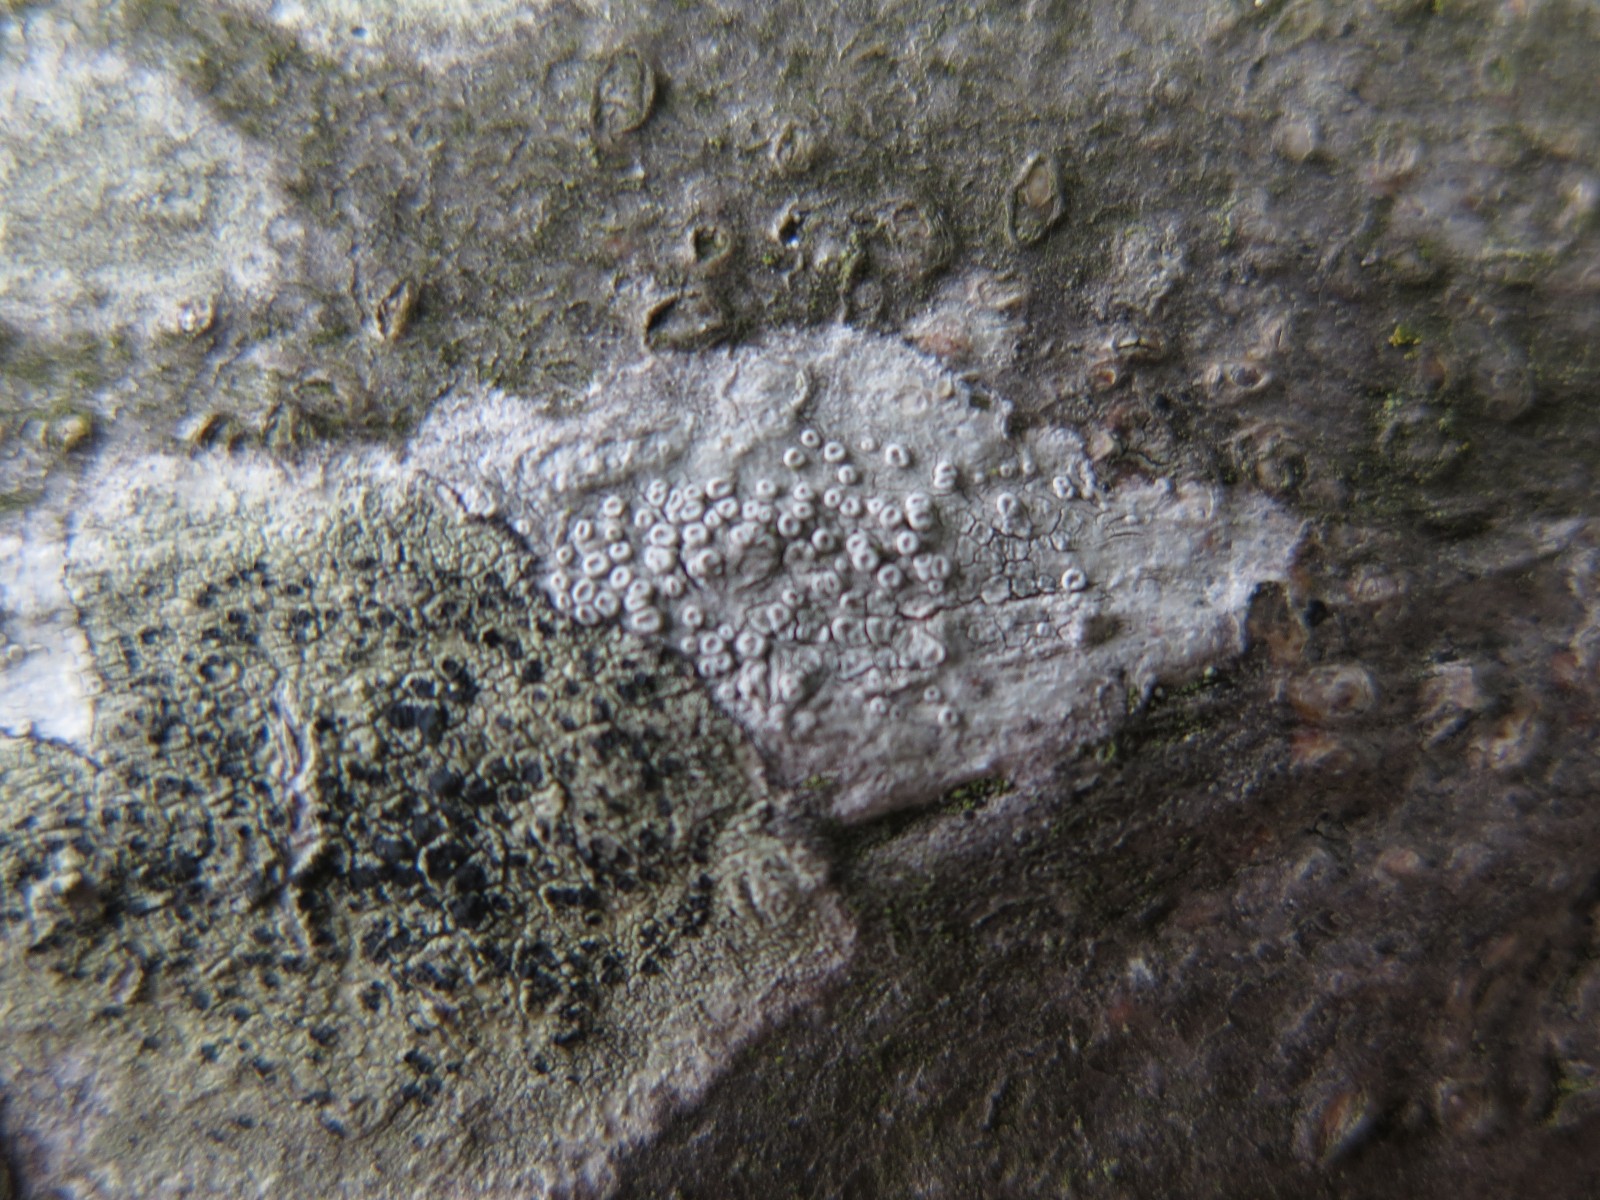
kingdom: Fungi
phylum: Ascomycota
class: Lecanoromycetes
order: Lecanorales
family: Lecanoraceae
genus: Glaucomaria
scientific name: Glaucomaria carpinea
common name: hviddugget kantskivelav
